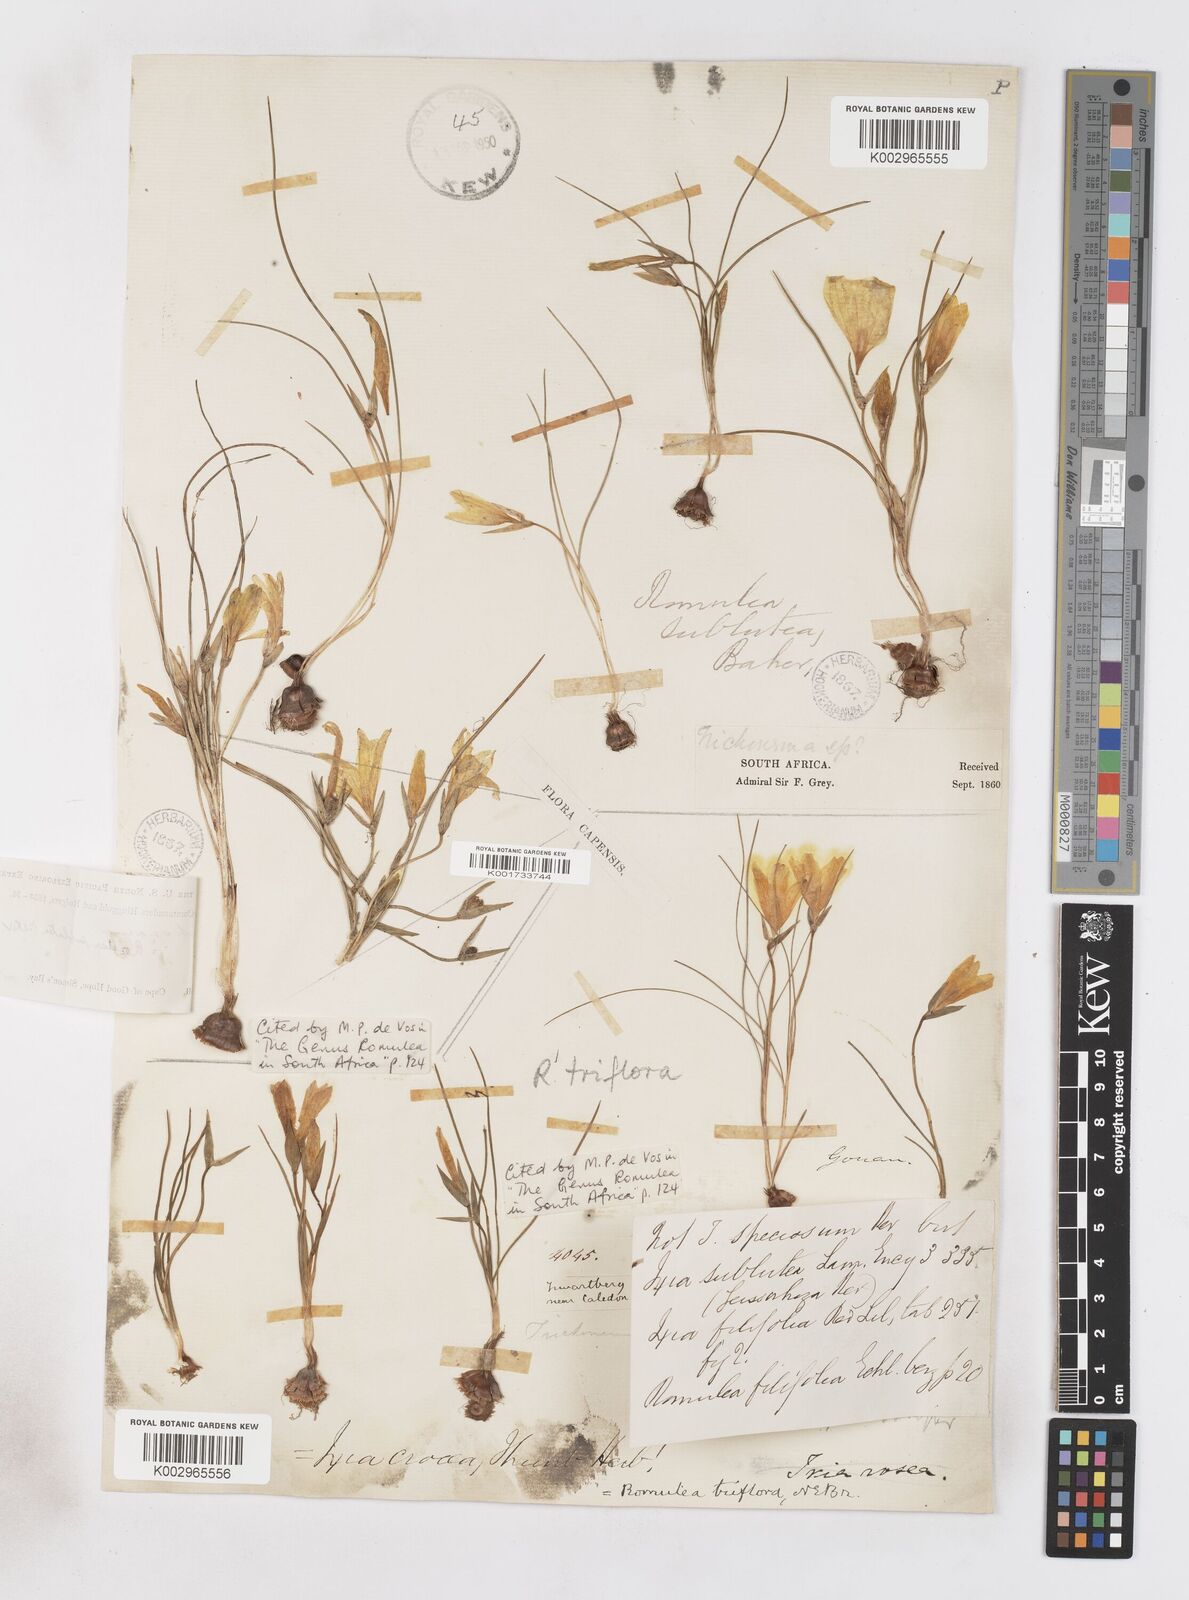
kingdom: Plantae
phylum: Tracheophyta
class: Liliopsida
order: Asparagales
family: Iridaceae
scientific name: Iridaceae
